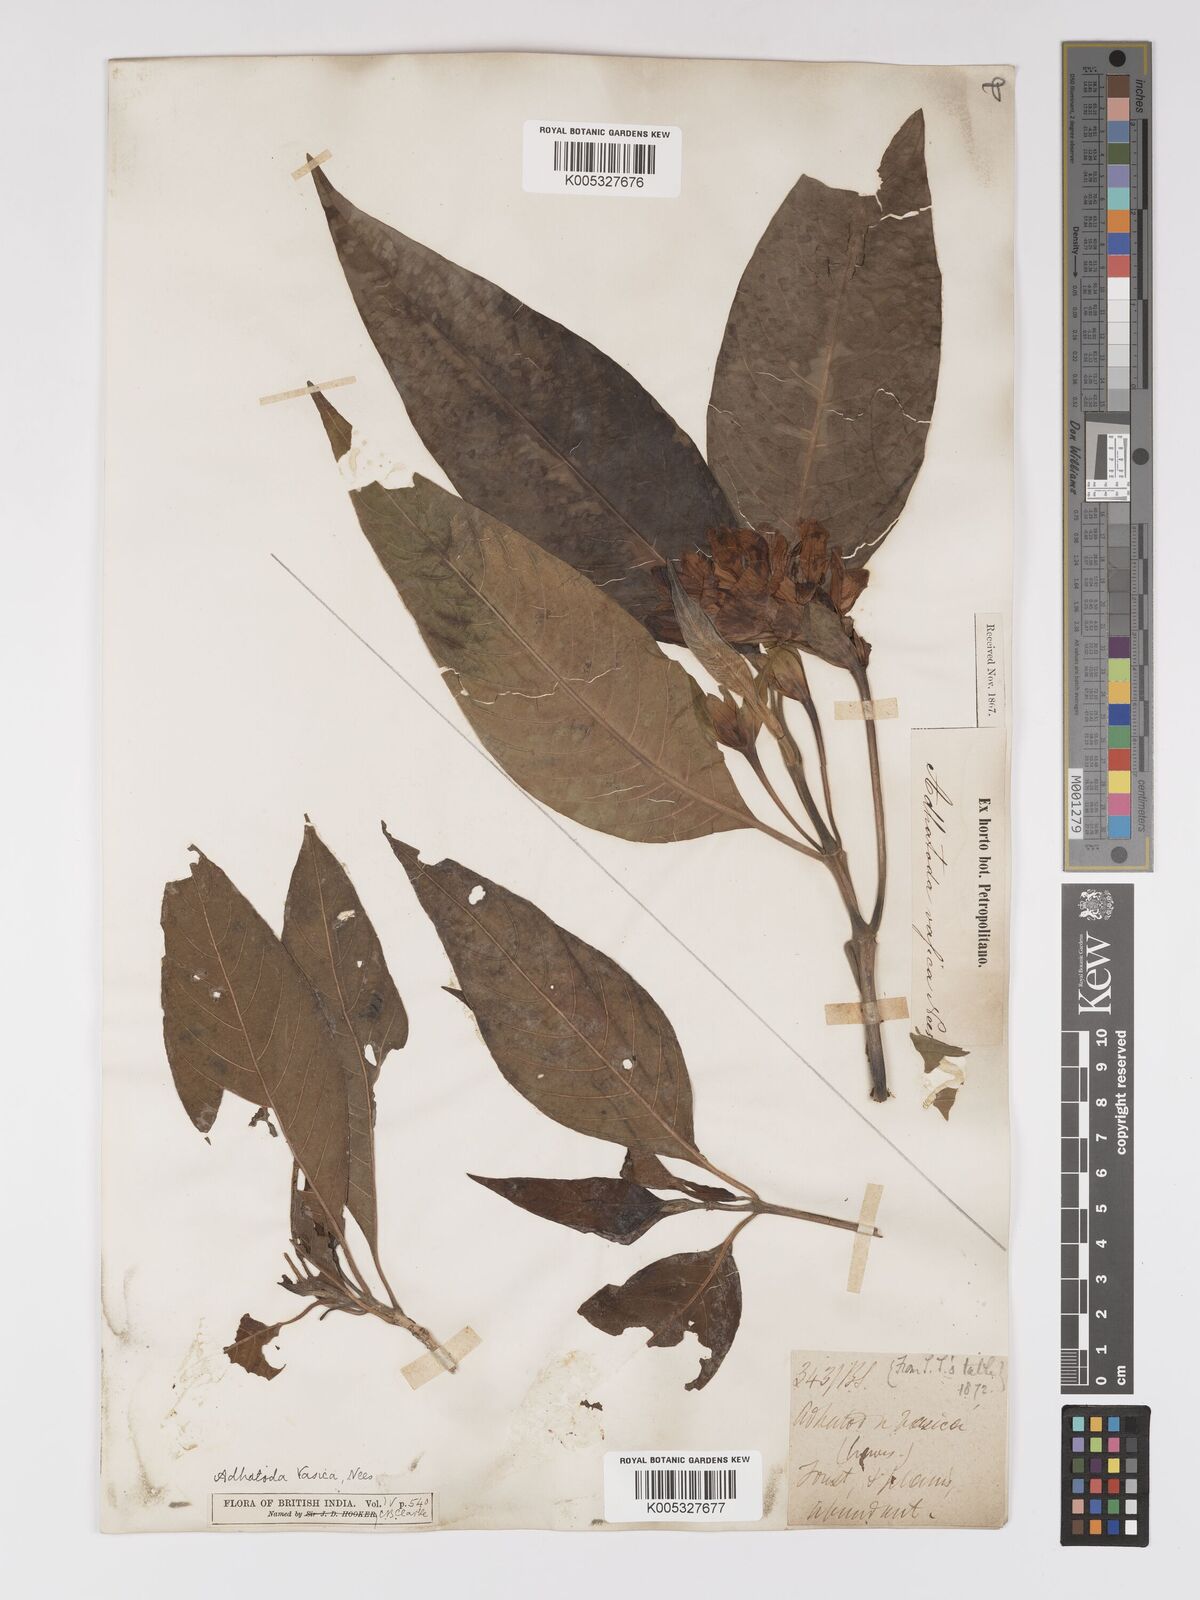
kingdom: Plantae
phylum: Tracheophyta
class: Magnoliopsida
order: Lamiales
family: Acanthaceae
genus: Ecbolium
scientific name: Ecbolium ligustrinum
